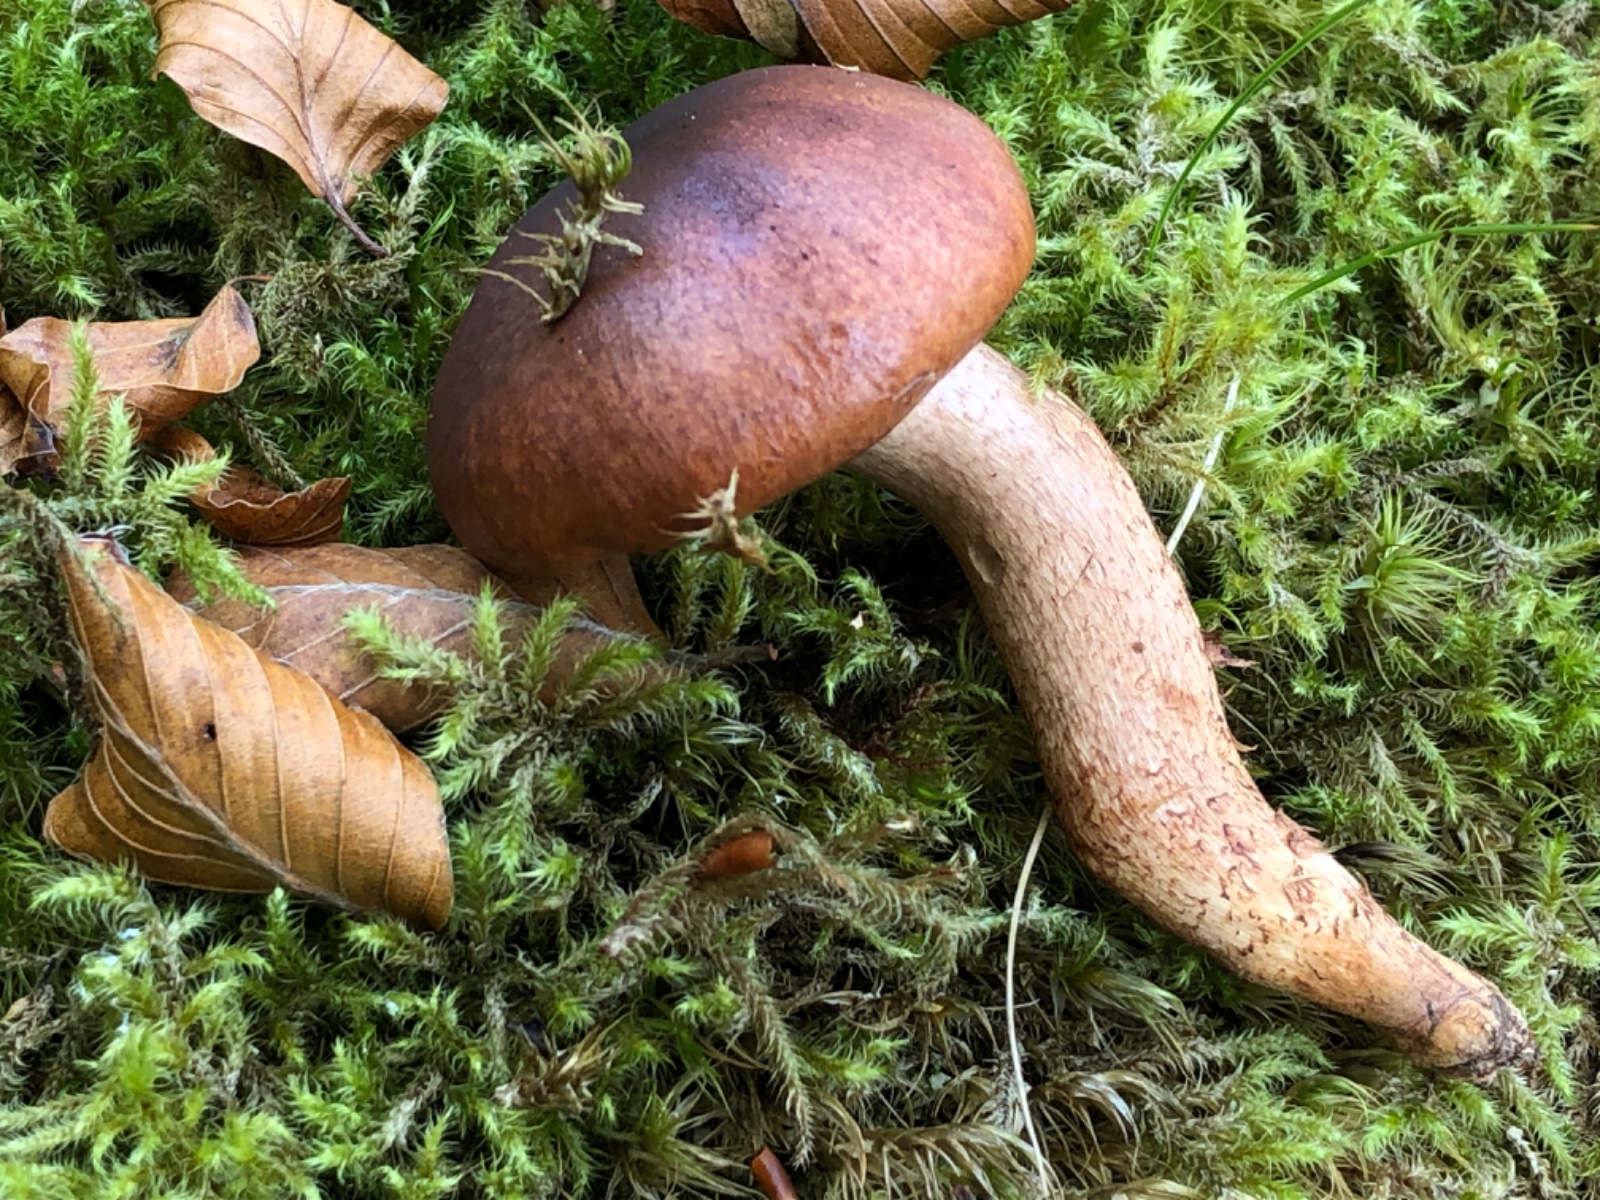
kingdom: Fungi
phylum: Basidiomycota
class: Agaricomycetes
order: Agaricales
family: Tricholomataceae
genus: Tricholoma
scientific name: Tricholoma ustaloides
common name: knippe-ridderhat
